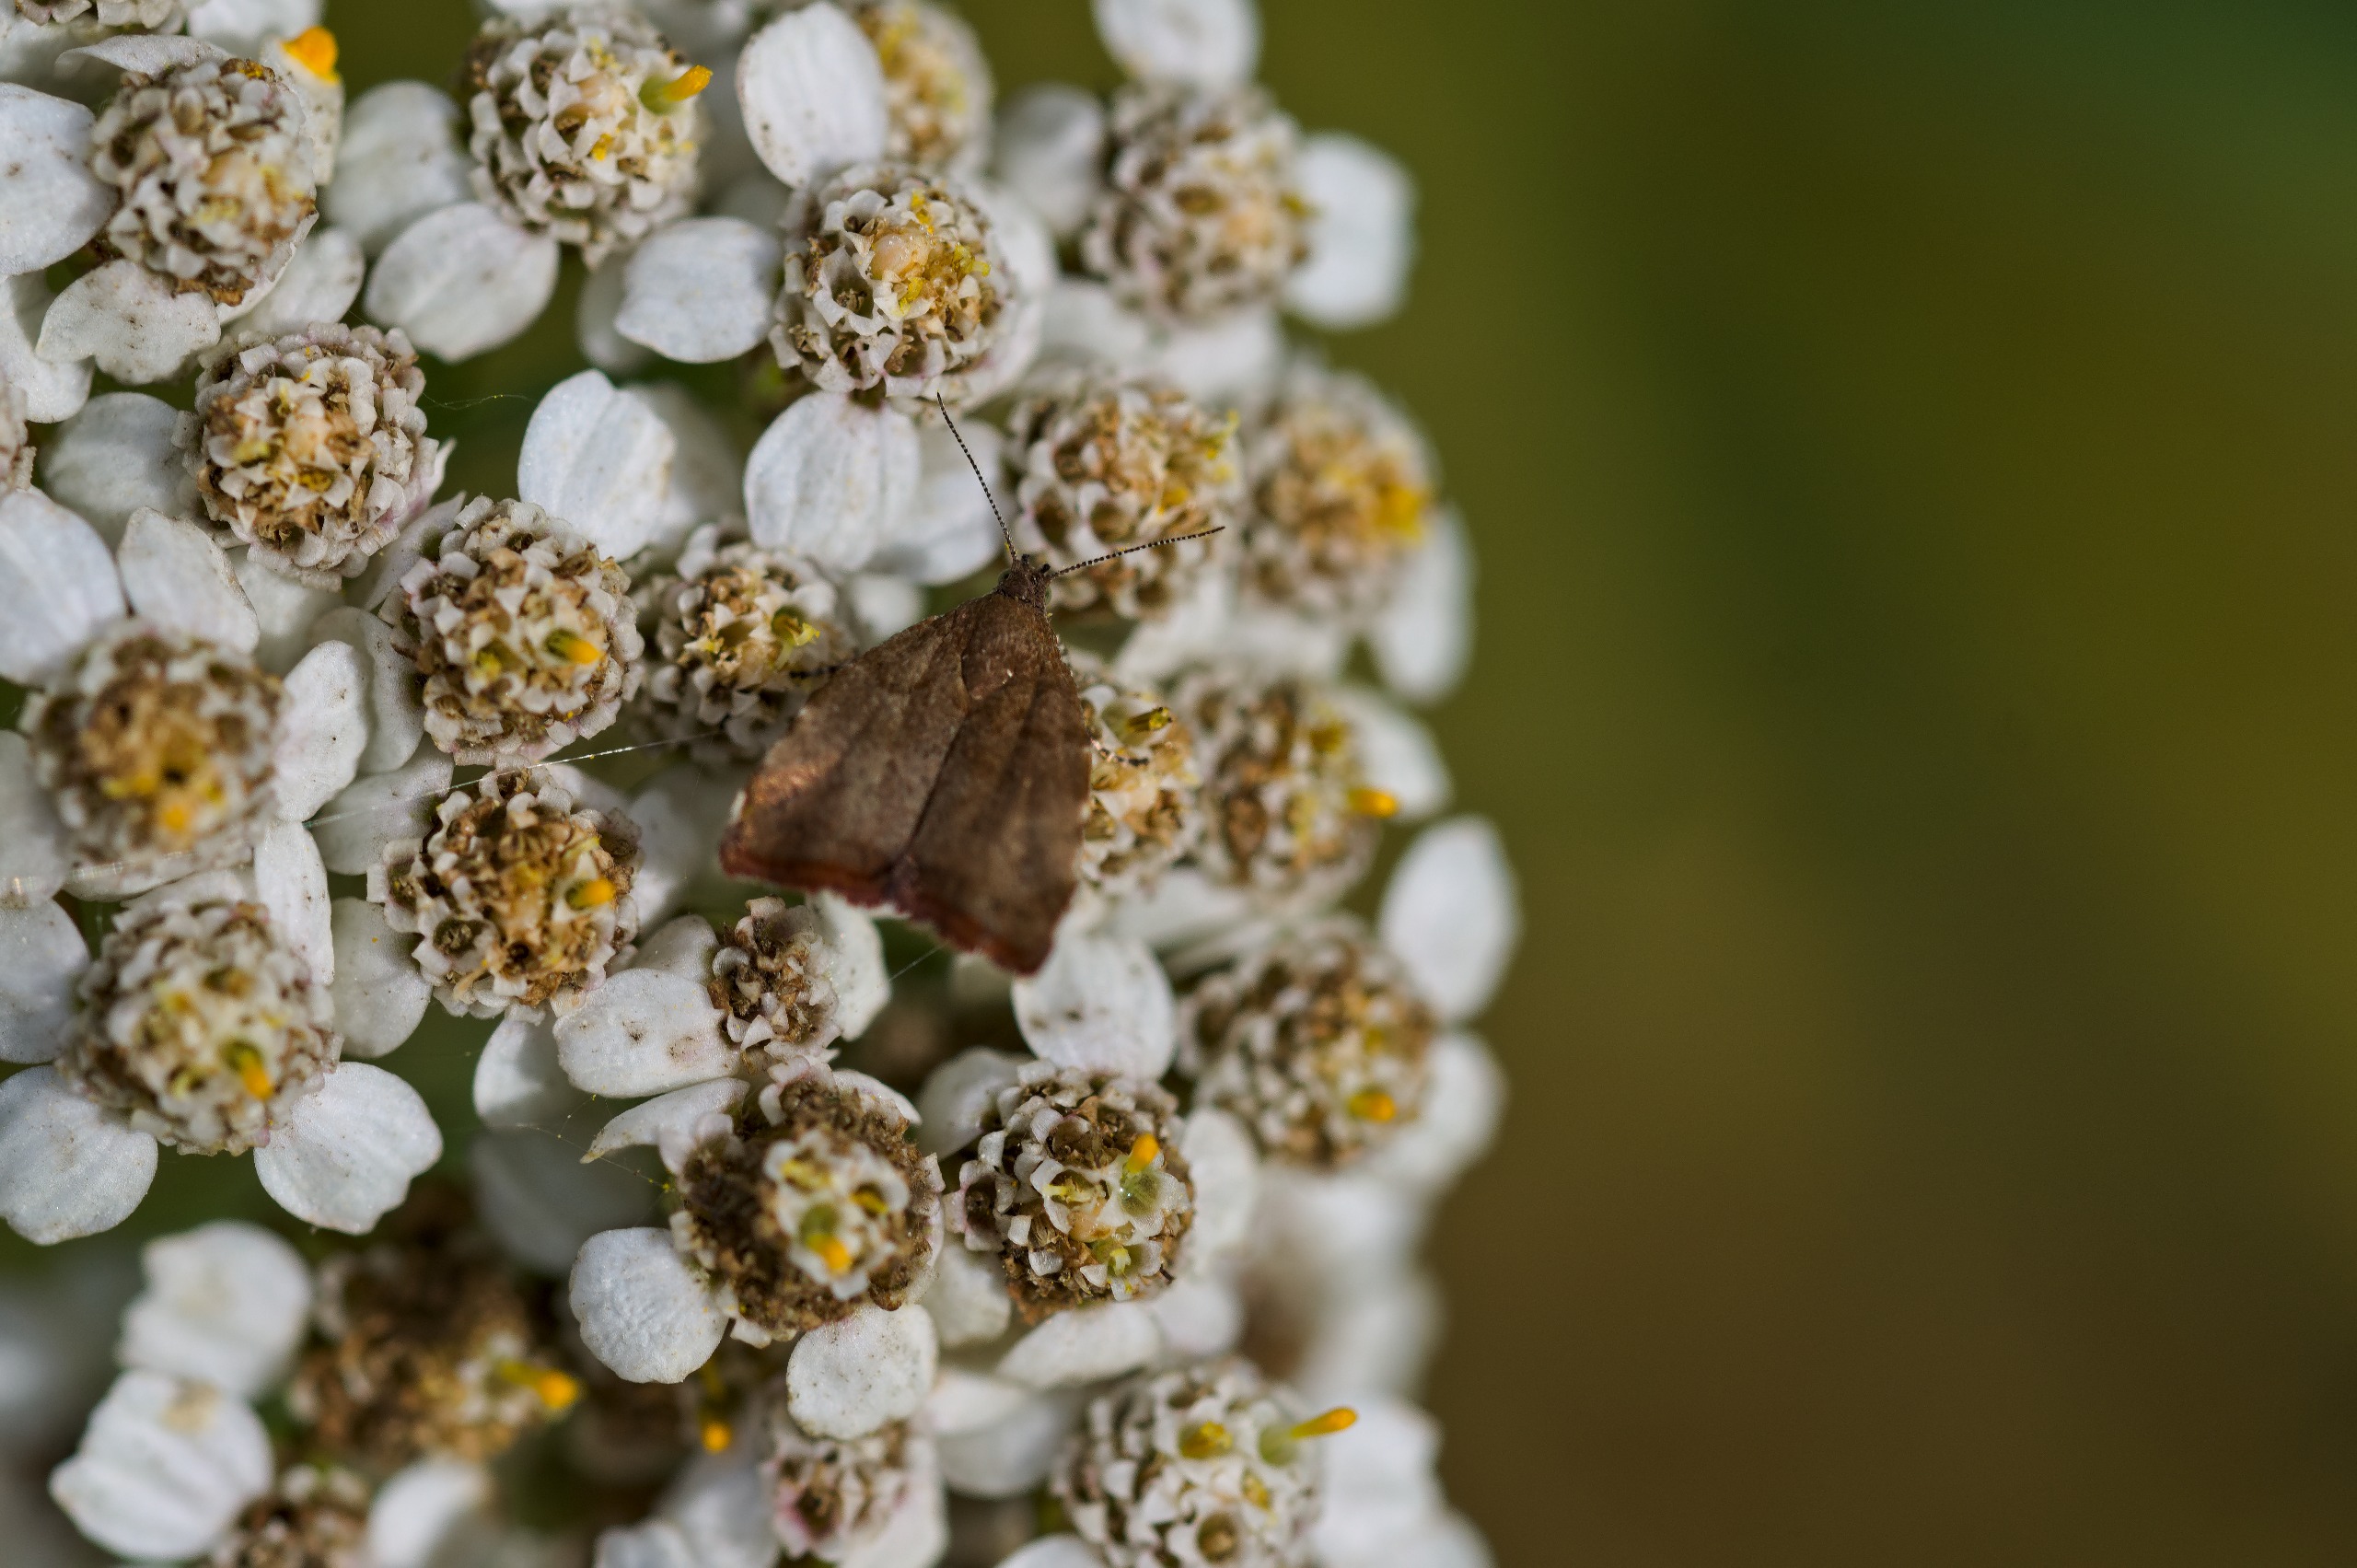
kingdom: Animalia
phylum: Arthropoda
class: Insecta
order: Lepidoptera
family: Choreutidae
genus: Choreutis
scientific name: Choreutis pariana
